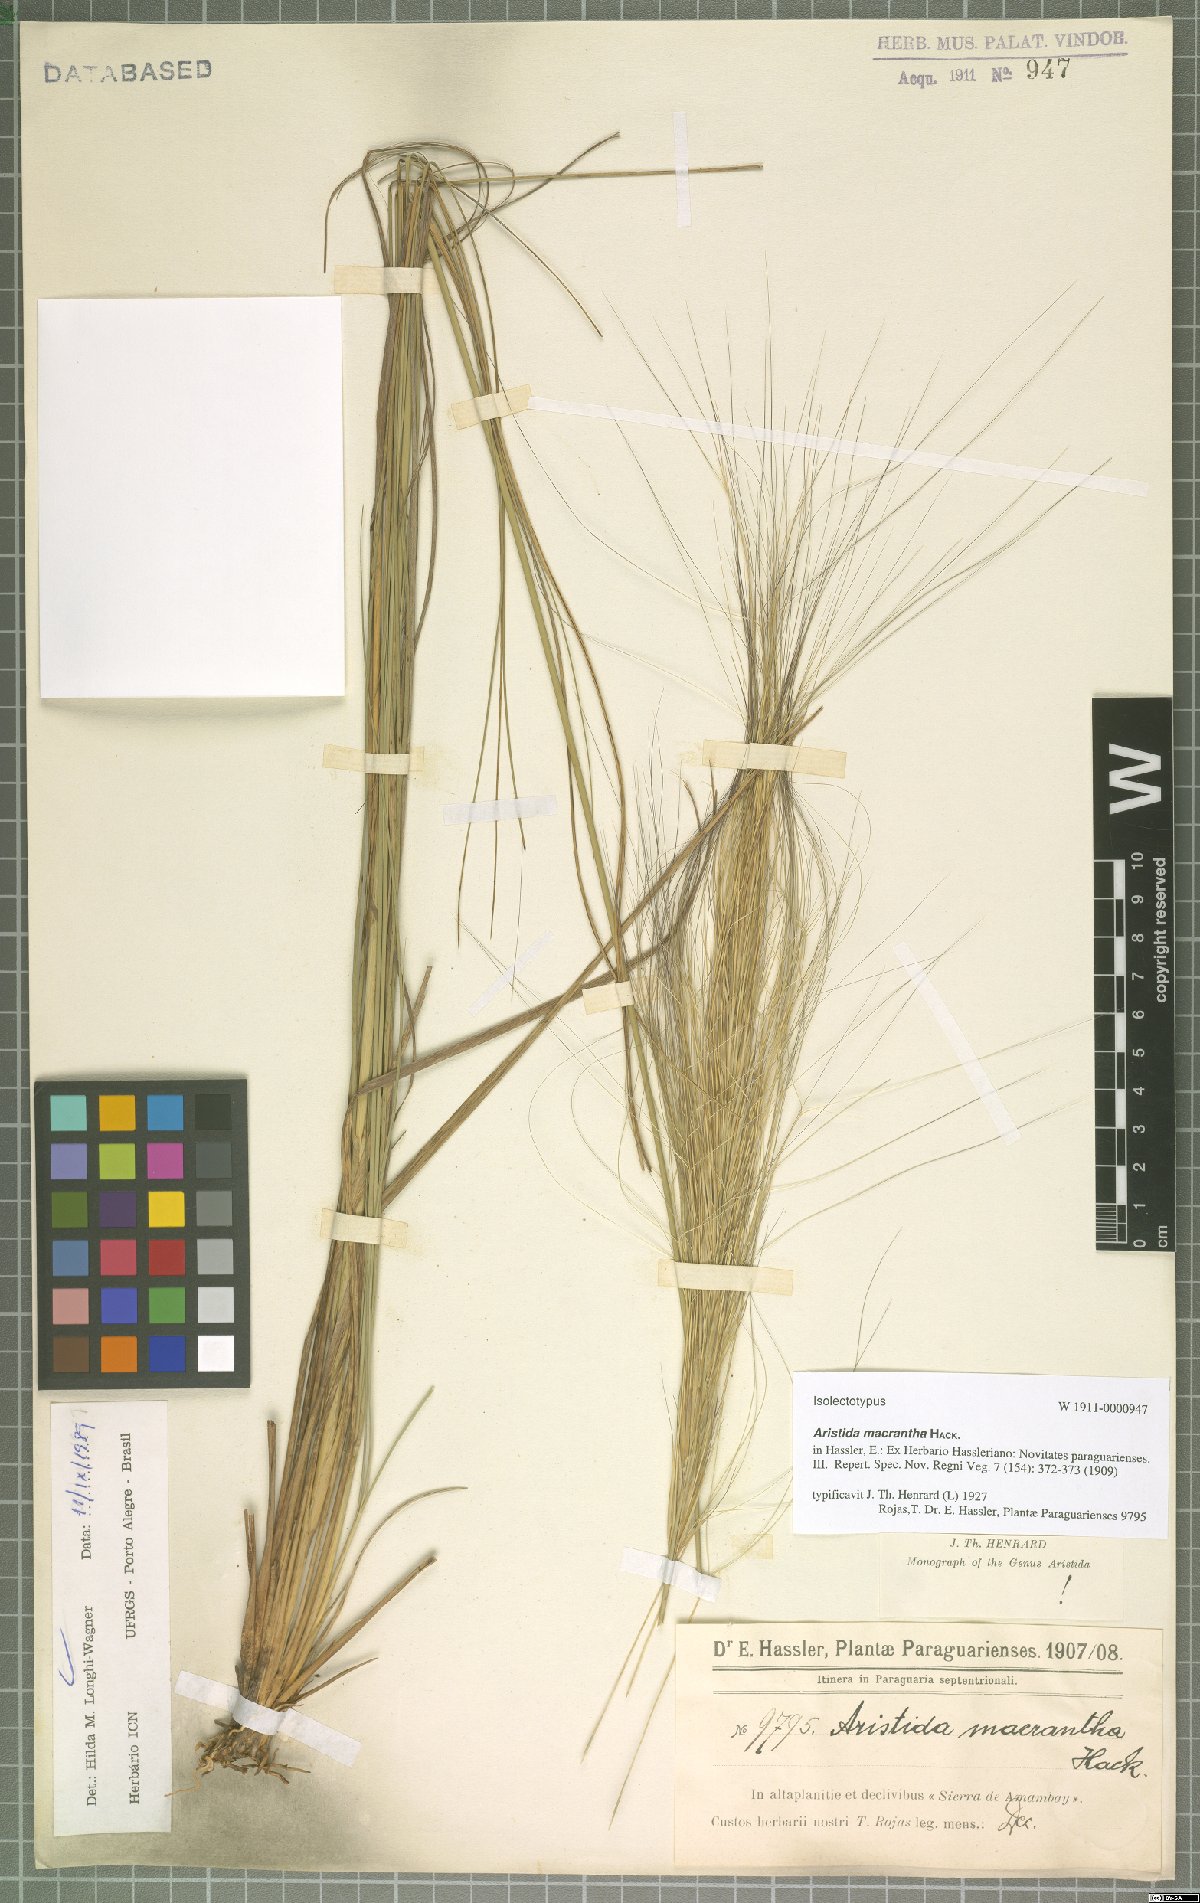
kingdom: Plantae
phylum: Tracheophyta
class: Liliopsida
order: Poales
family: Poaceae
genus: Aristida
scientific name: Aristida macrantha
